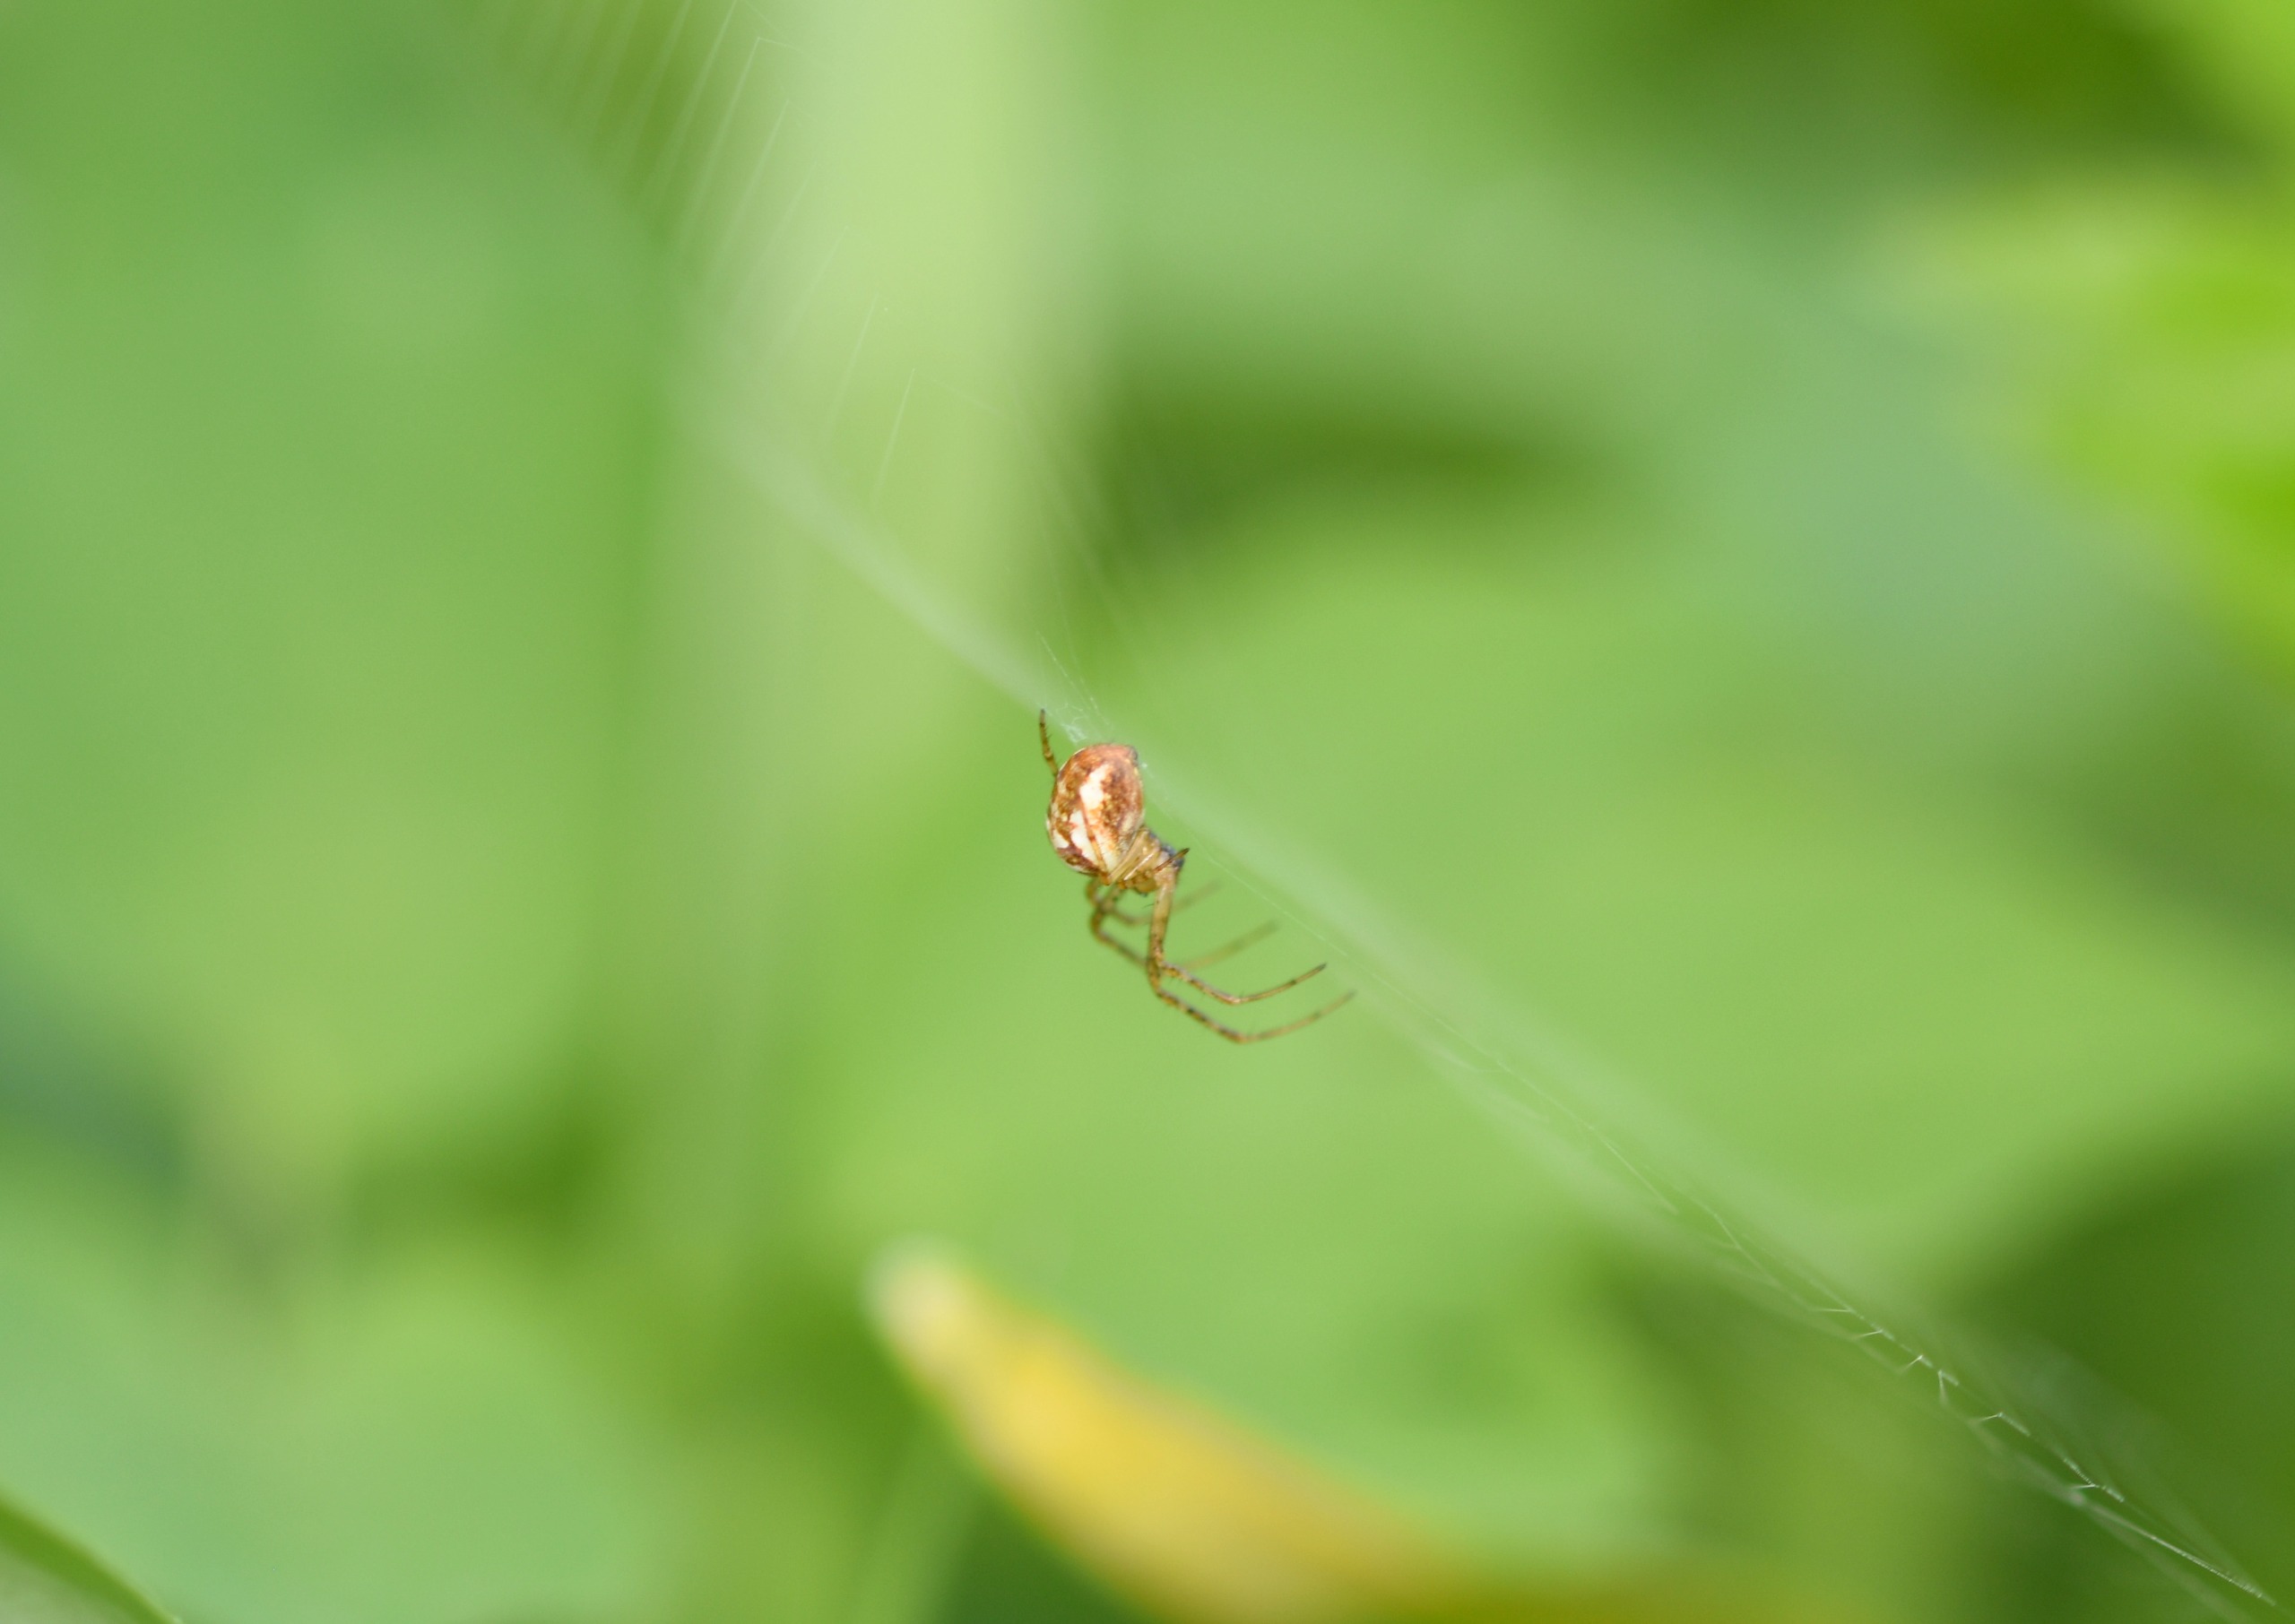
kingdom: Animalia
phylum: Arthropoda
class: Arachnida
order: Araneae
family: Tetragnathidae
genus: Metellina
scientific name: Metellina
